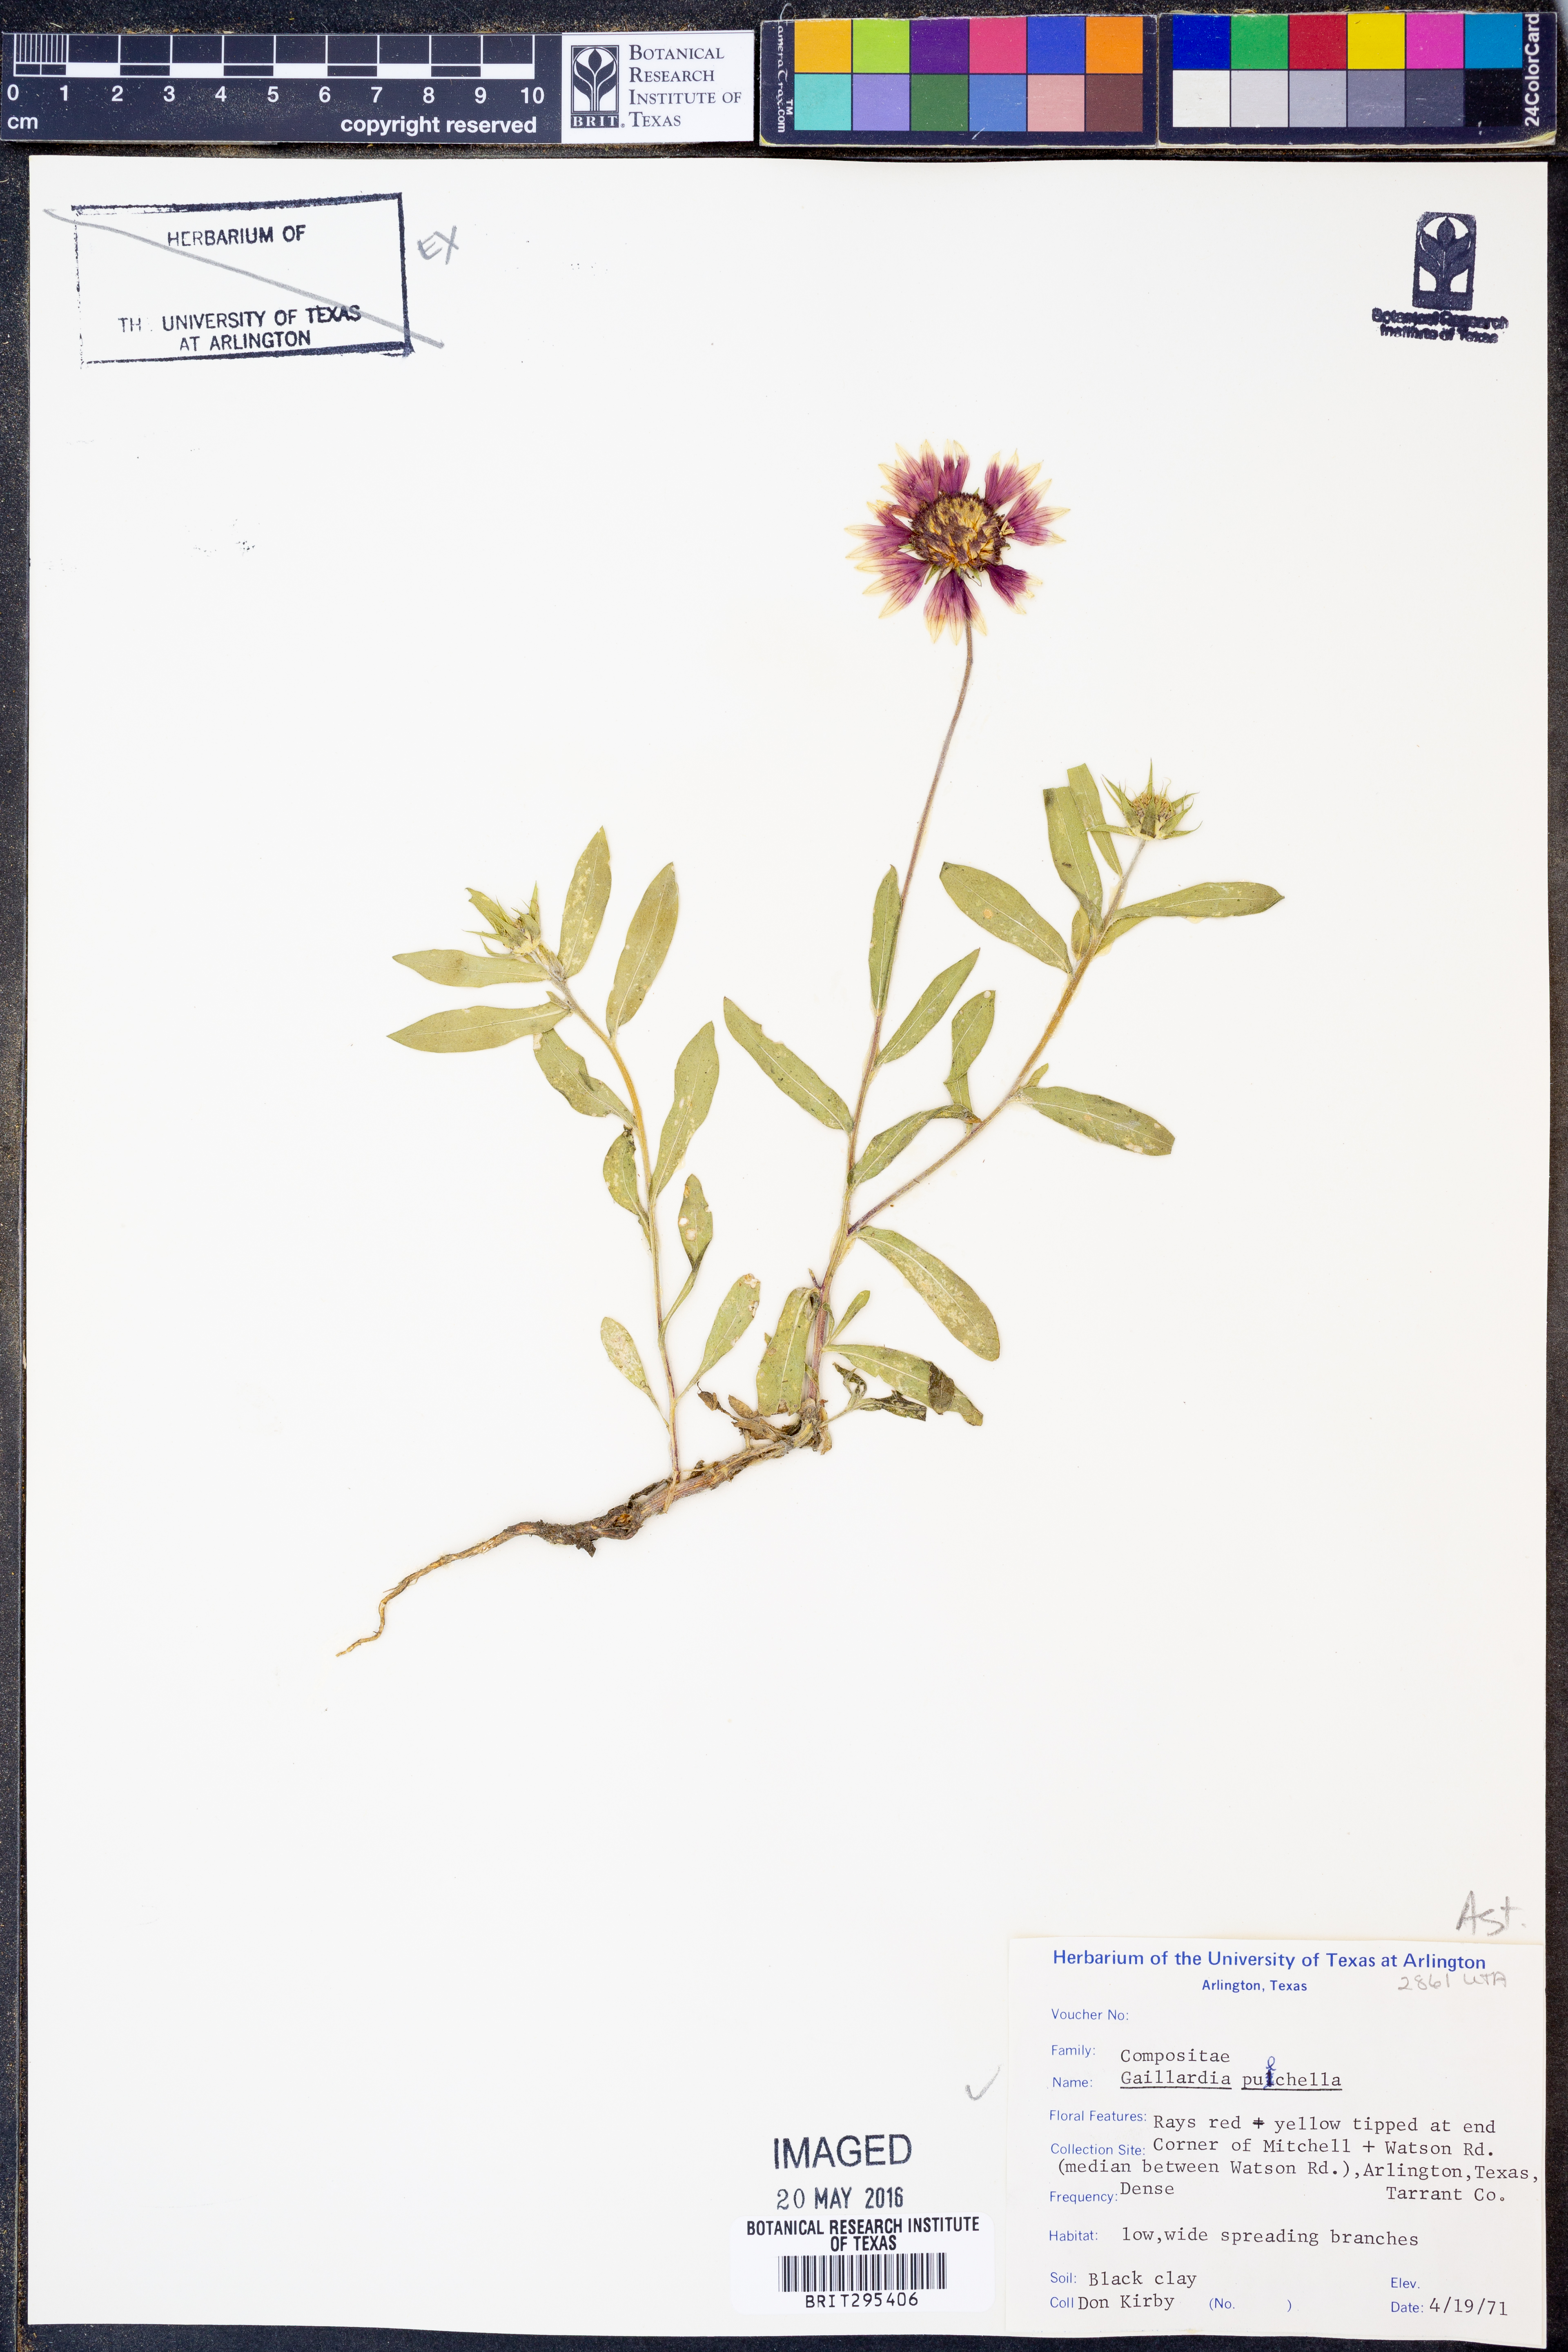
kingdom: Plantae
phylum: Tracheophyta
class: Magnoliopsida
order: Asterales
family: Asteraceae
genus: Gaillardia
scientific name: Gaillardia pulchella
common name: Firewheel
